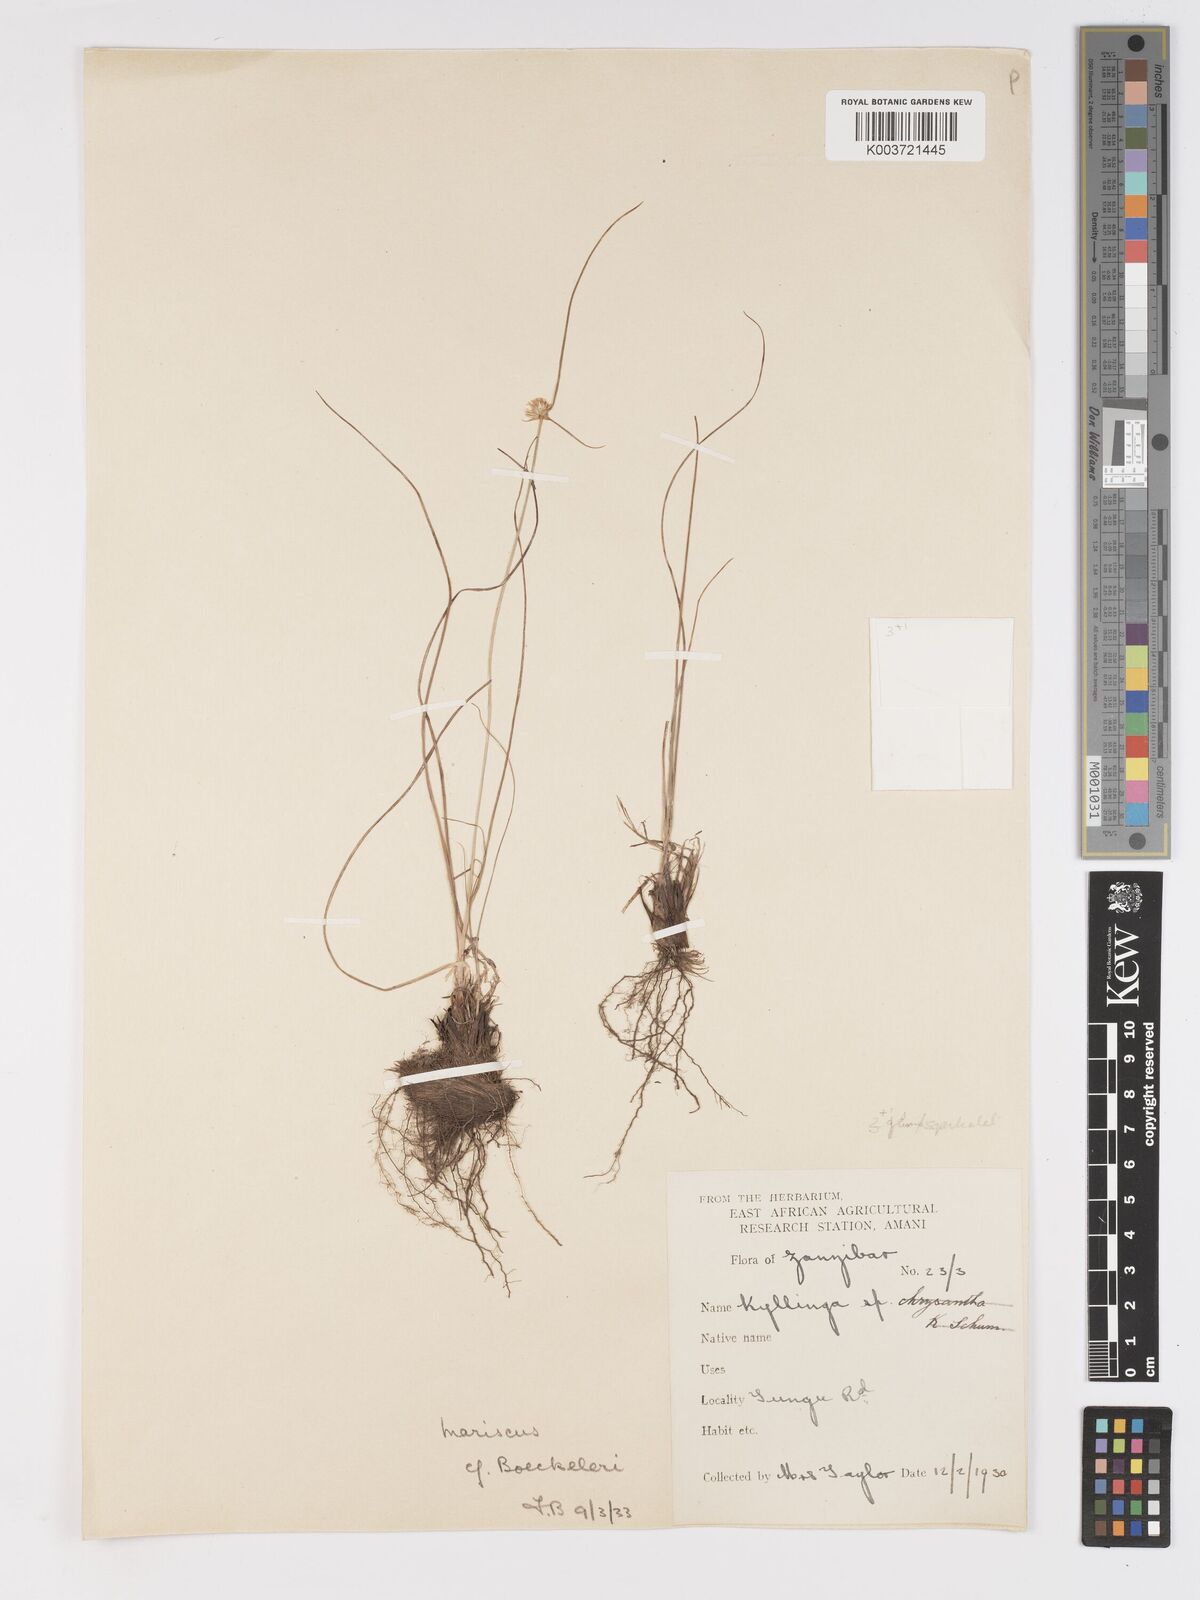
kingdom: Plantae
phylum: Tracheophyta
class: Liliopsida
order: Poales
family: Cyperaceae
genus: Cyperus
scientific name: Cyperus mollipes
